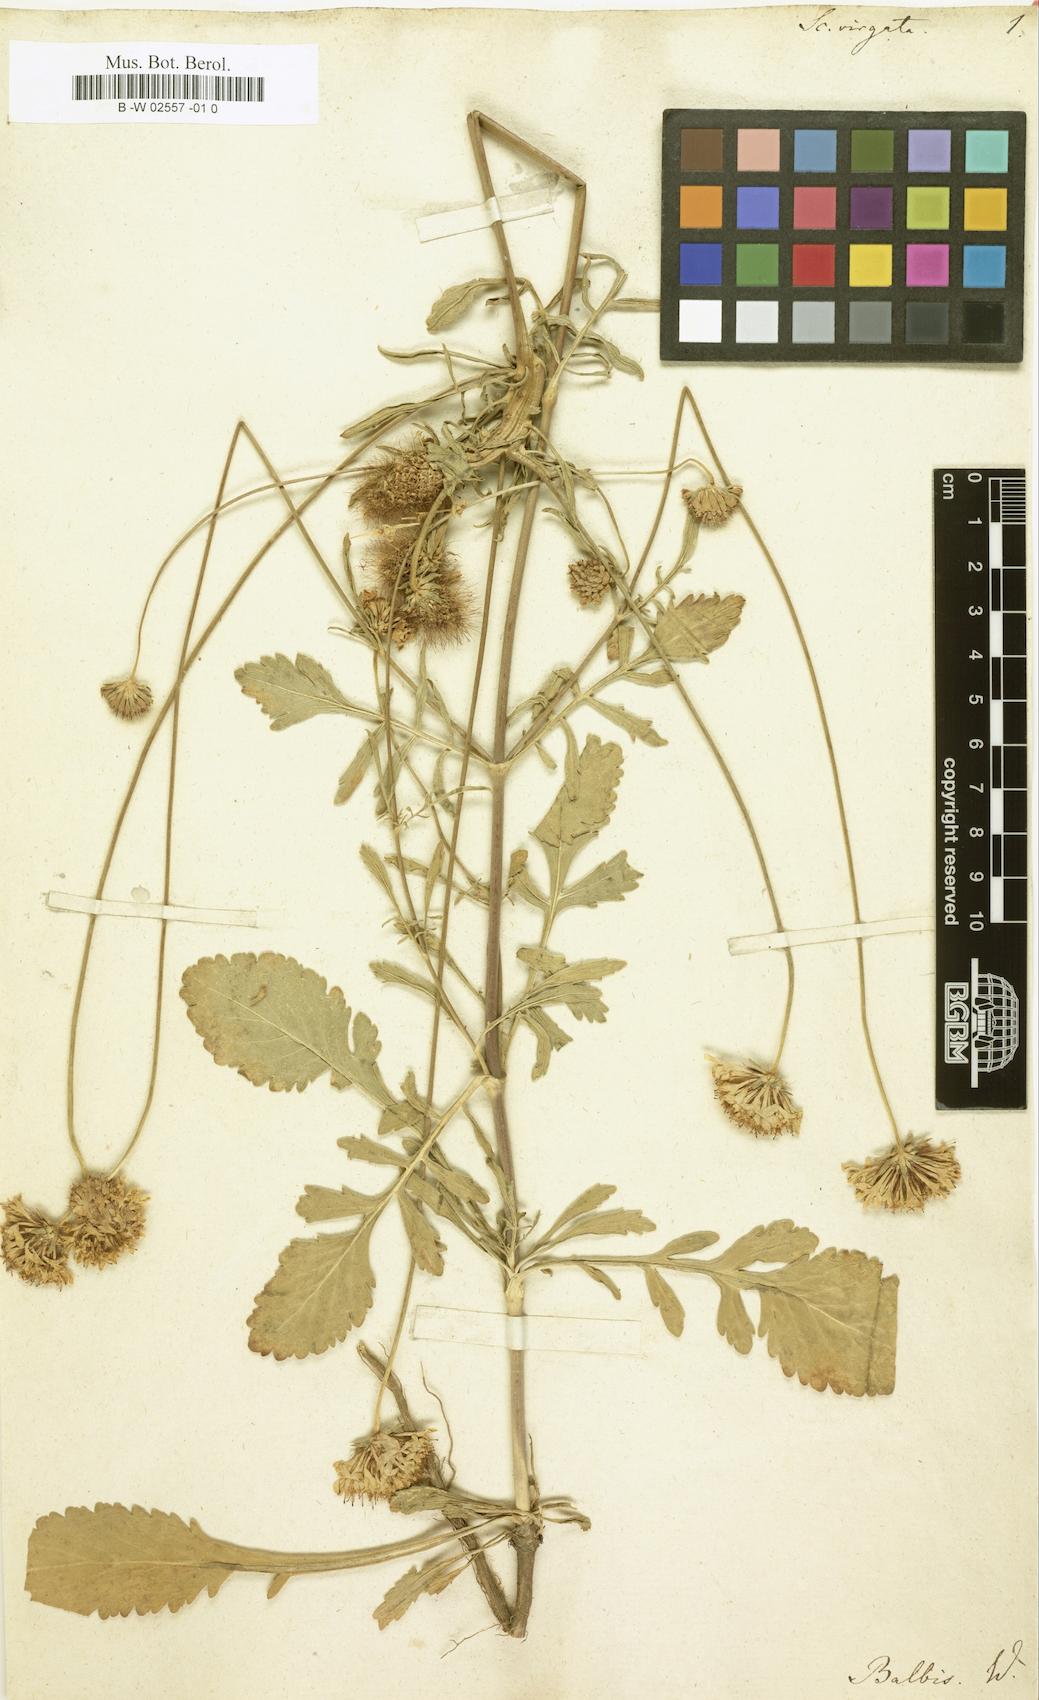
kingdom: Plantae
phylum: Tracheophyta
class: Magnoliopsida
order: Dipsacales
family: Caprifoliaceae
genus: Lomelosia
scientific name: Lomelosia argentea
